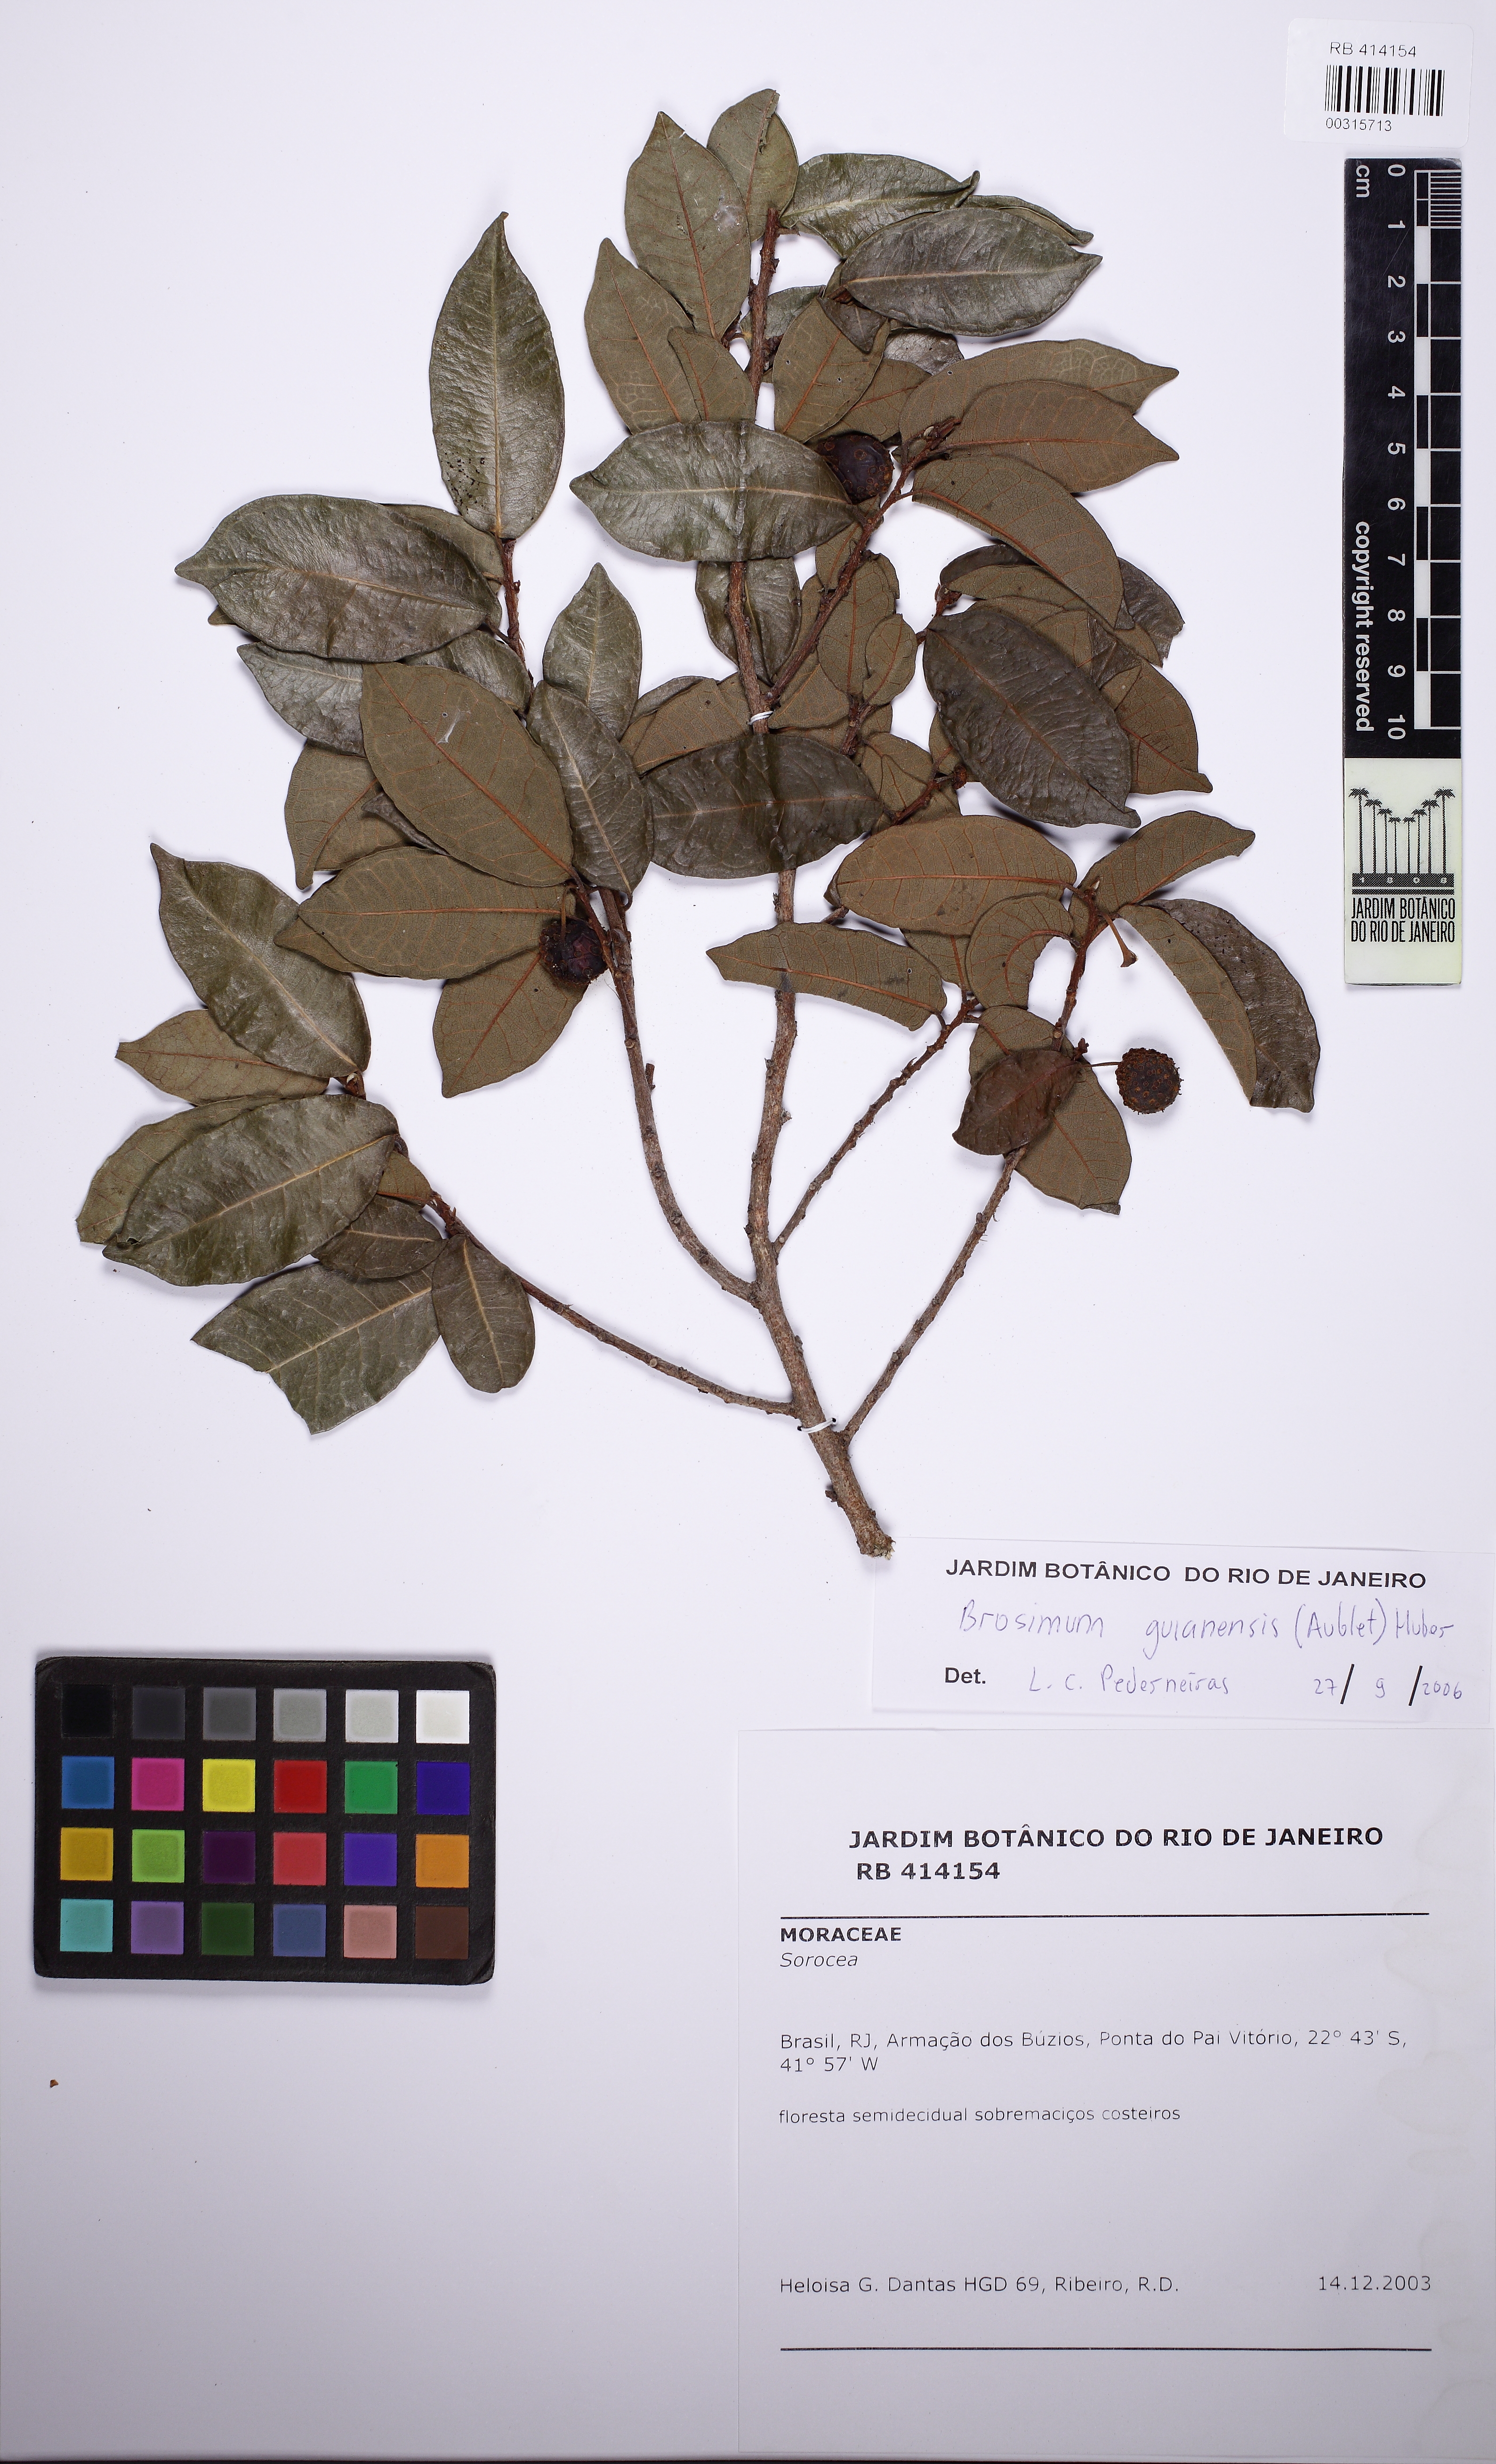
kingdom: Plantae
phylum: Tracheophyta
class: Magnoliopsida
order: Rosales
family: Moraceae
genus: Brosimum
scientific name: Brosimum guianense
